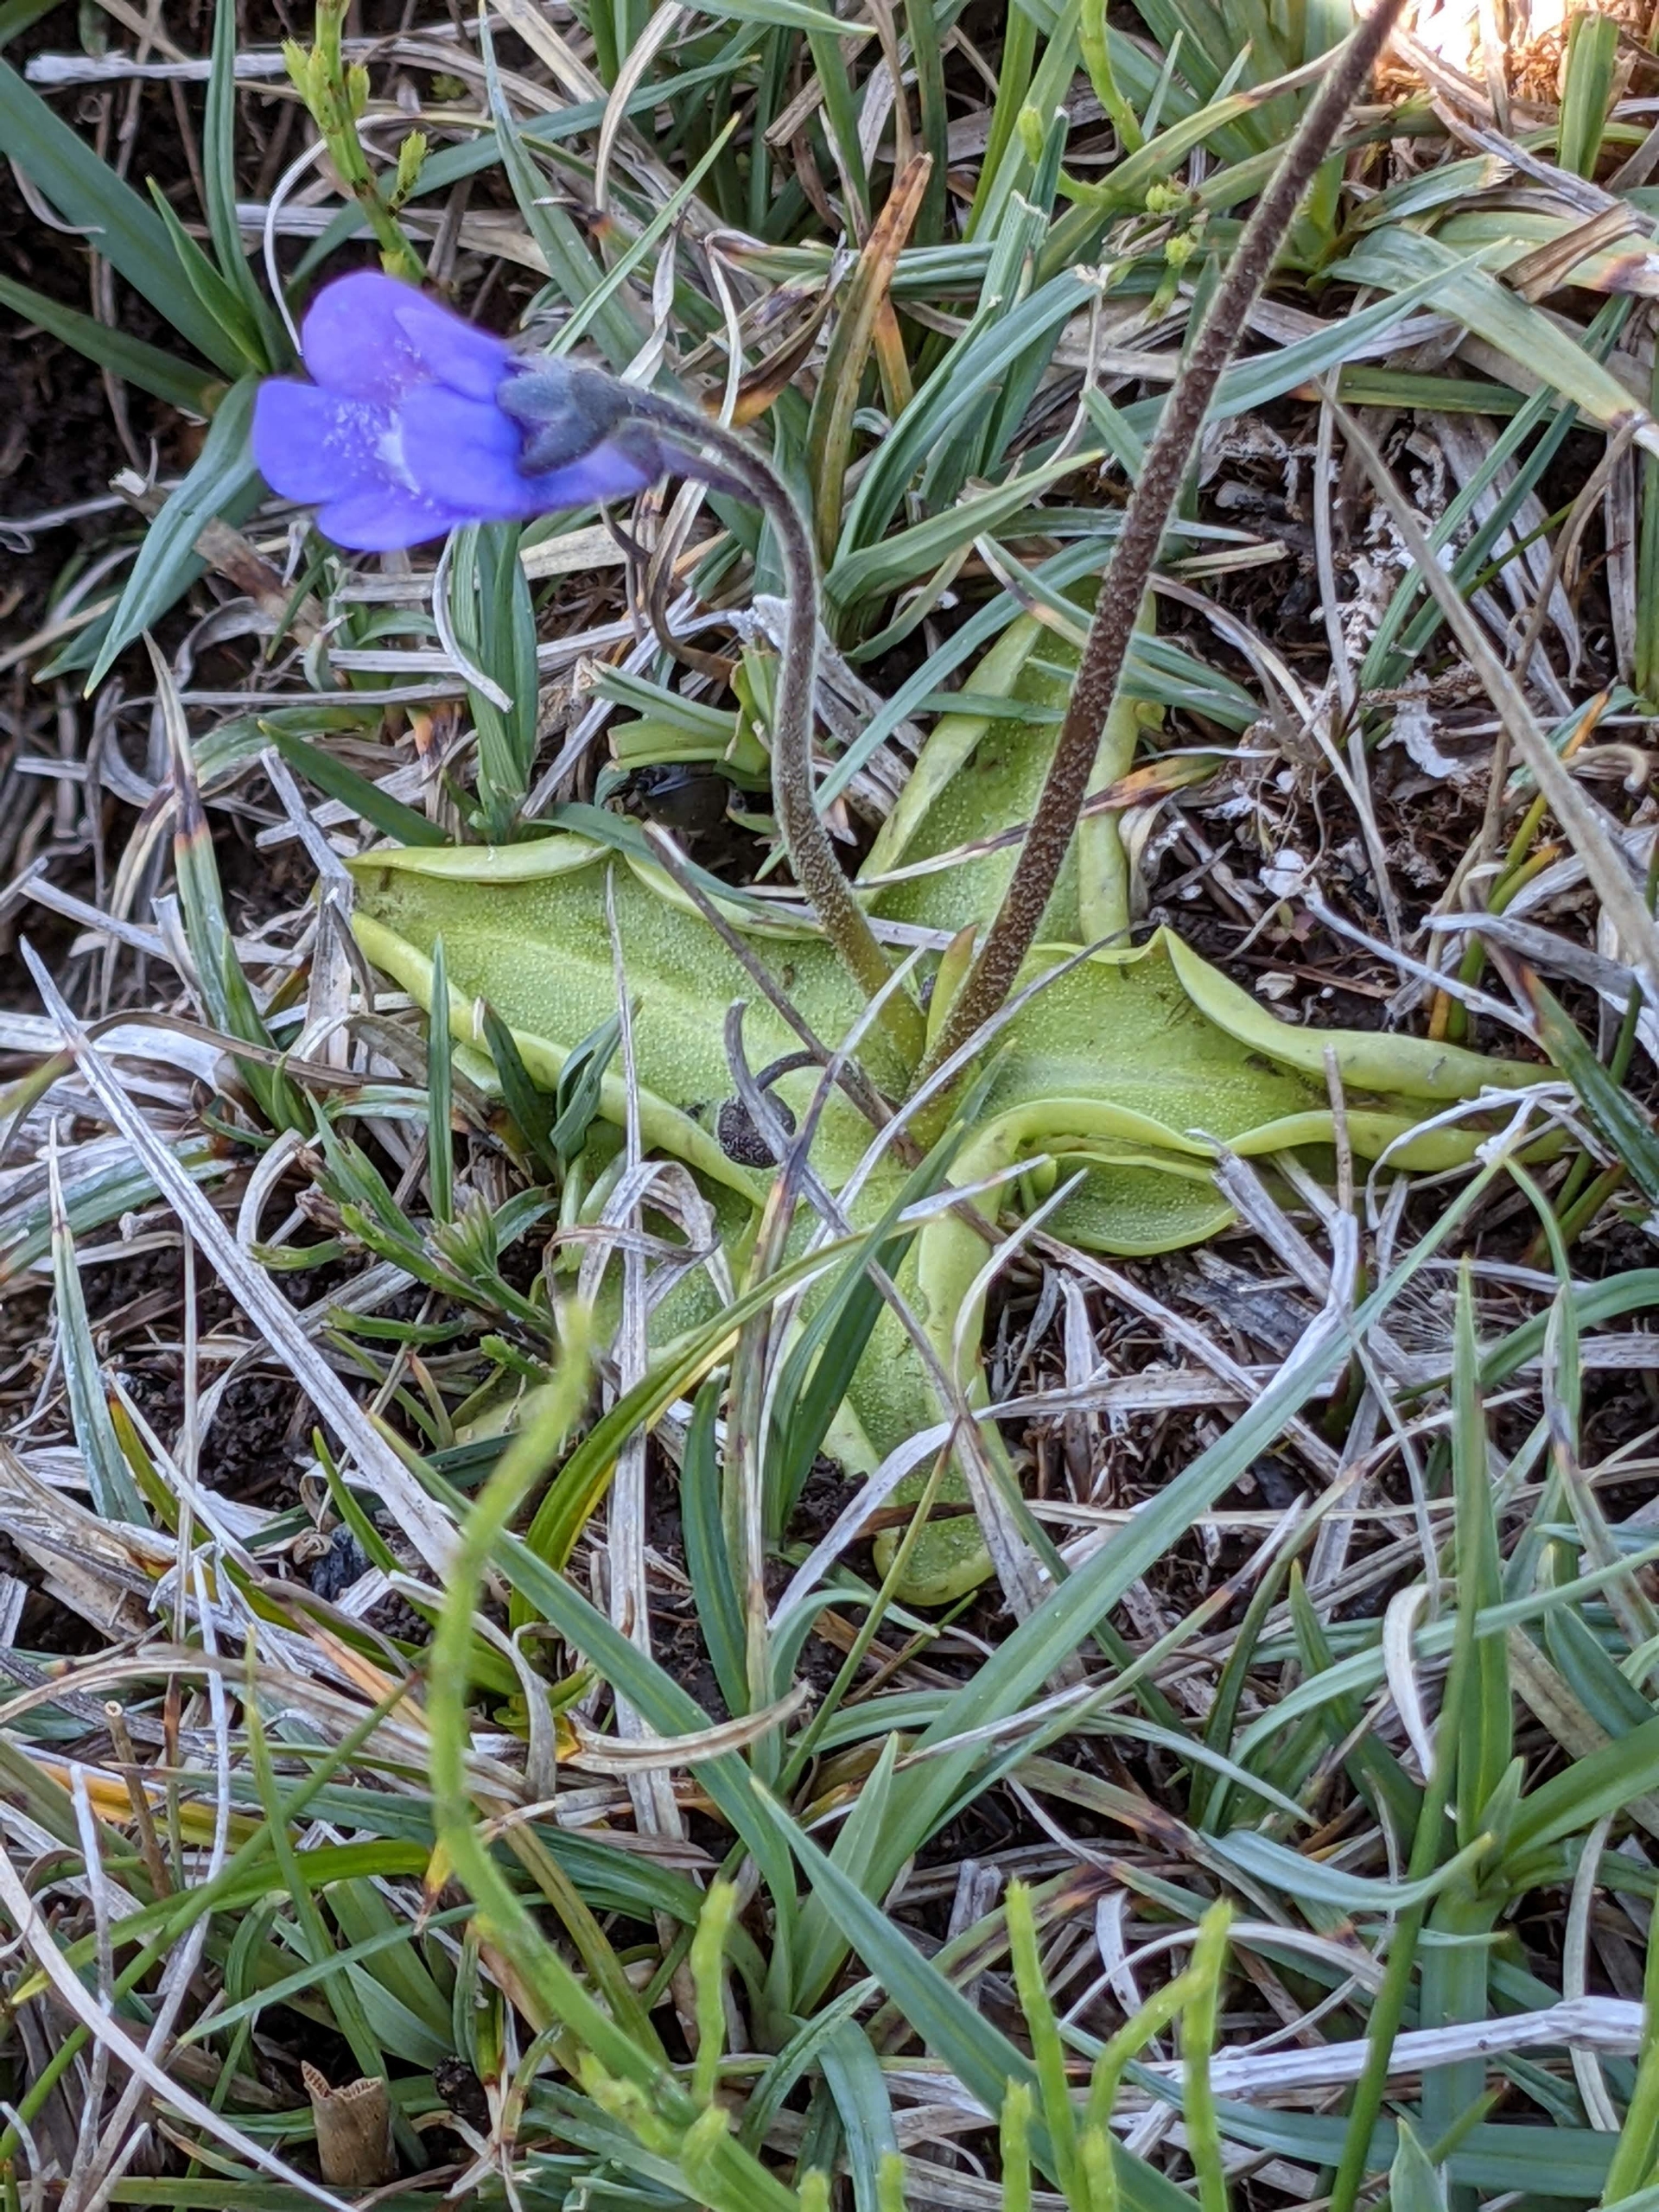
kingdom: Plantae
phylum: Tracheophyta
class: Magnoliopsida
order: Lamiales
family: Lentibulariaceae
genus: Pinguicula
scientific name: Pinguicula vulgaris
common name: Vibefedt
